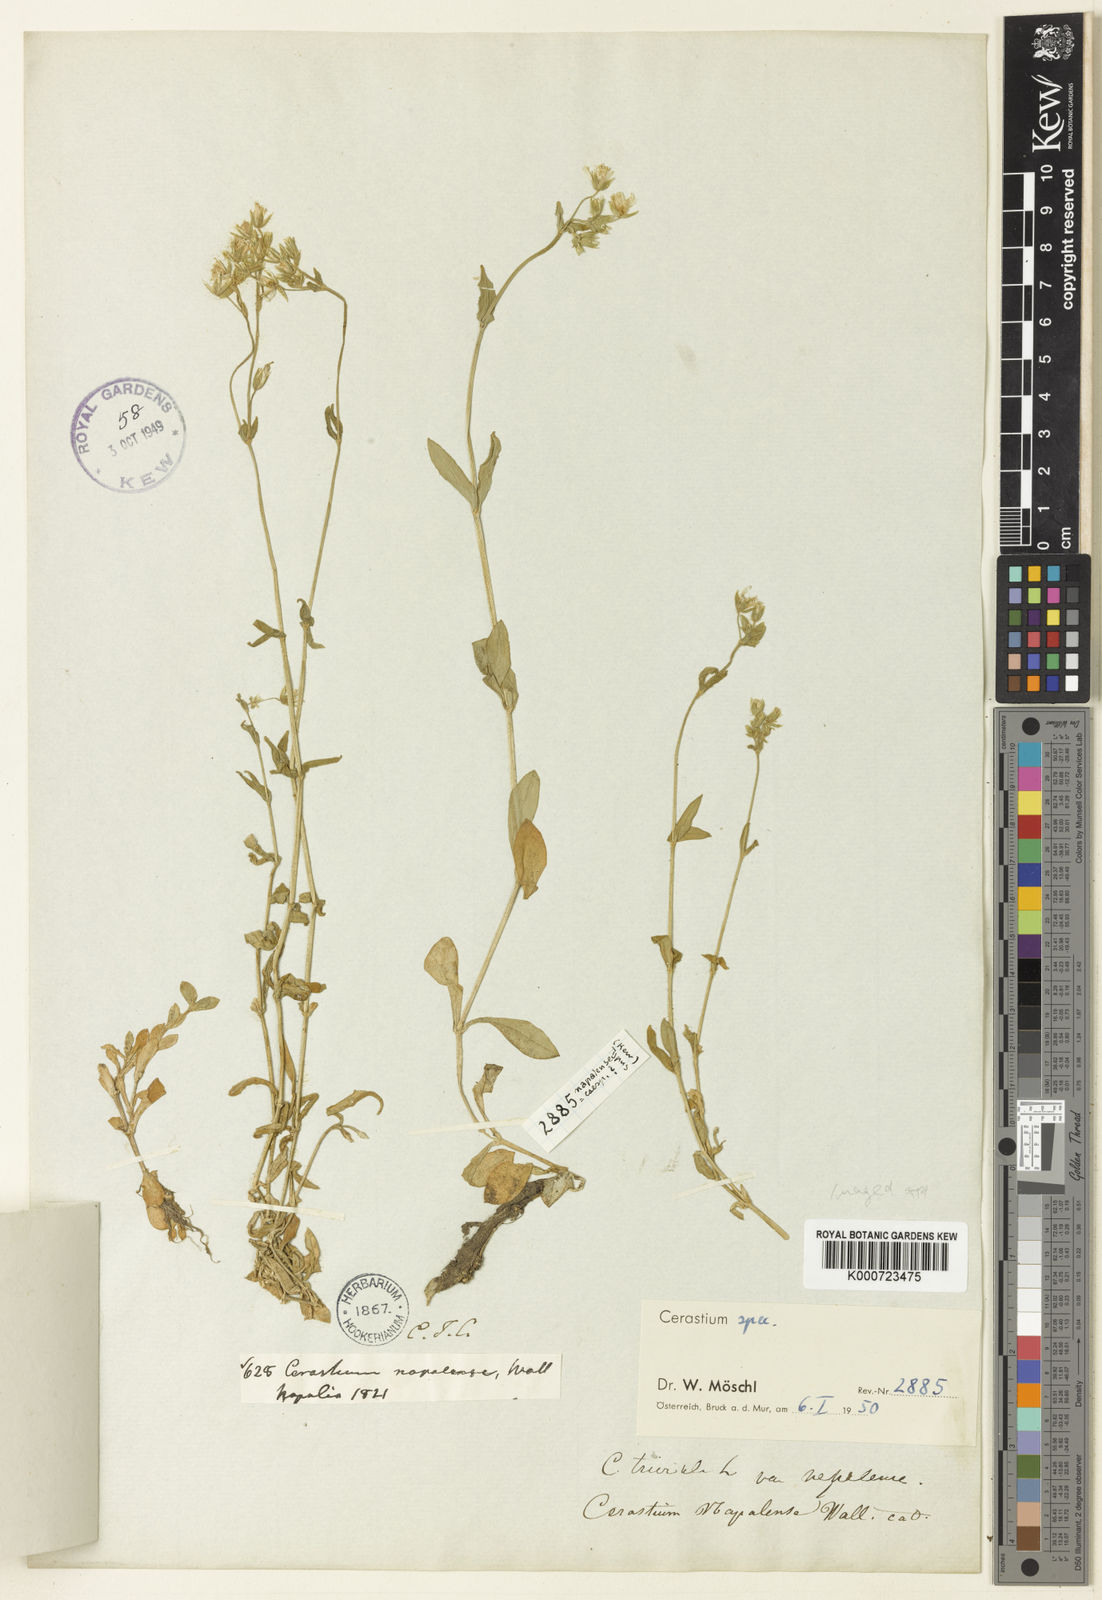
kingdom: Plantae
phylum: Tracheophyta
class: Magnoliopsida
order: Caryophyllales
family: Caryophyllaceae
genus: Cerastium
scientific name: Cerastium
